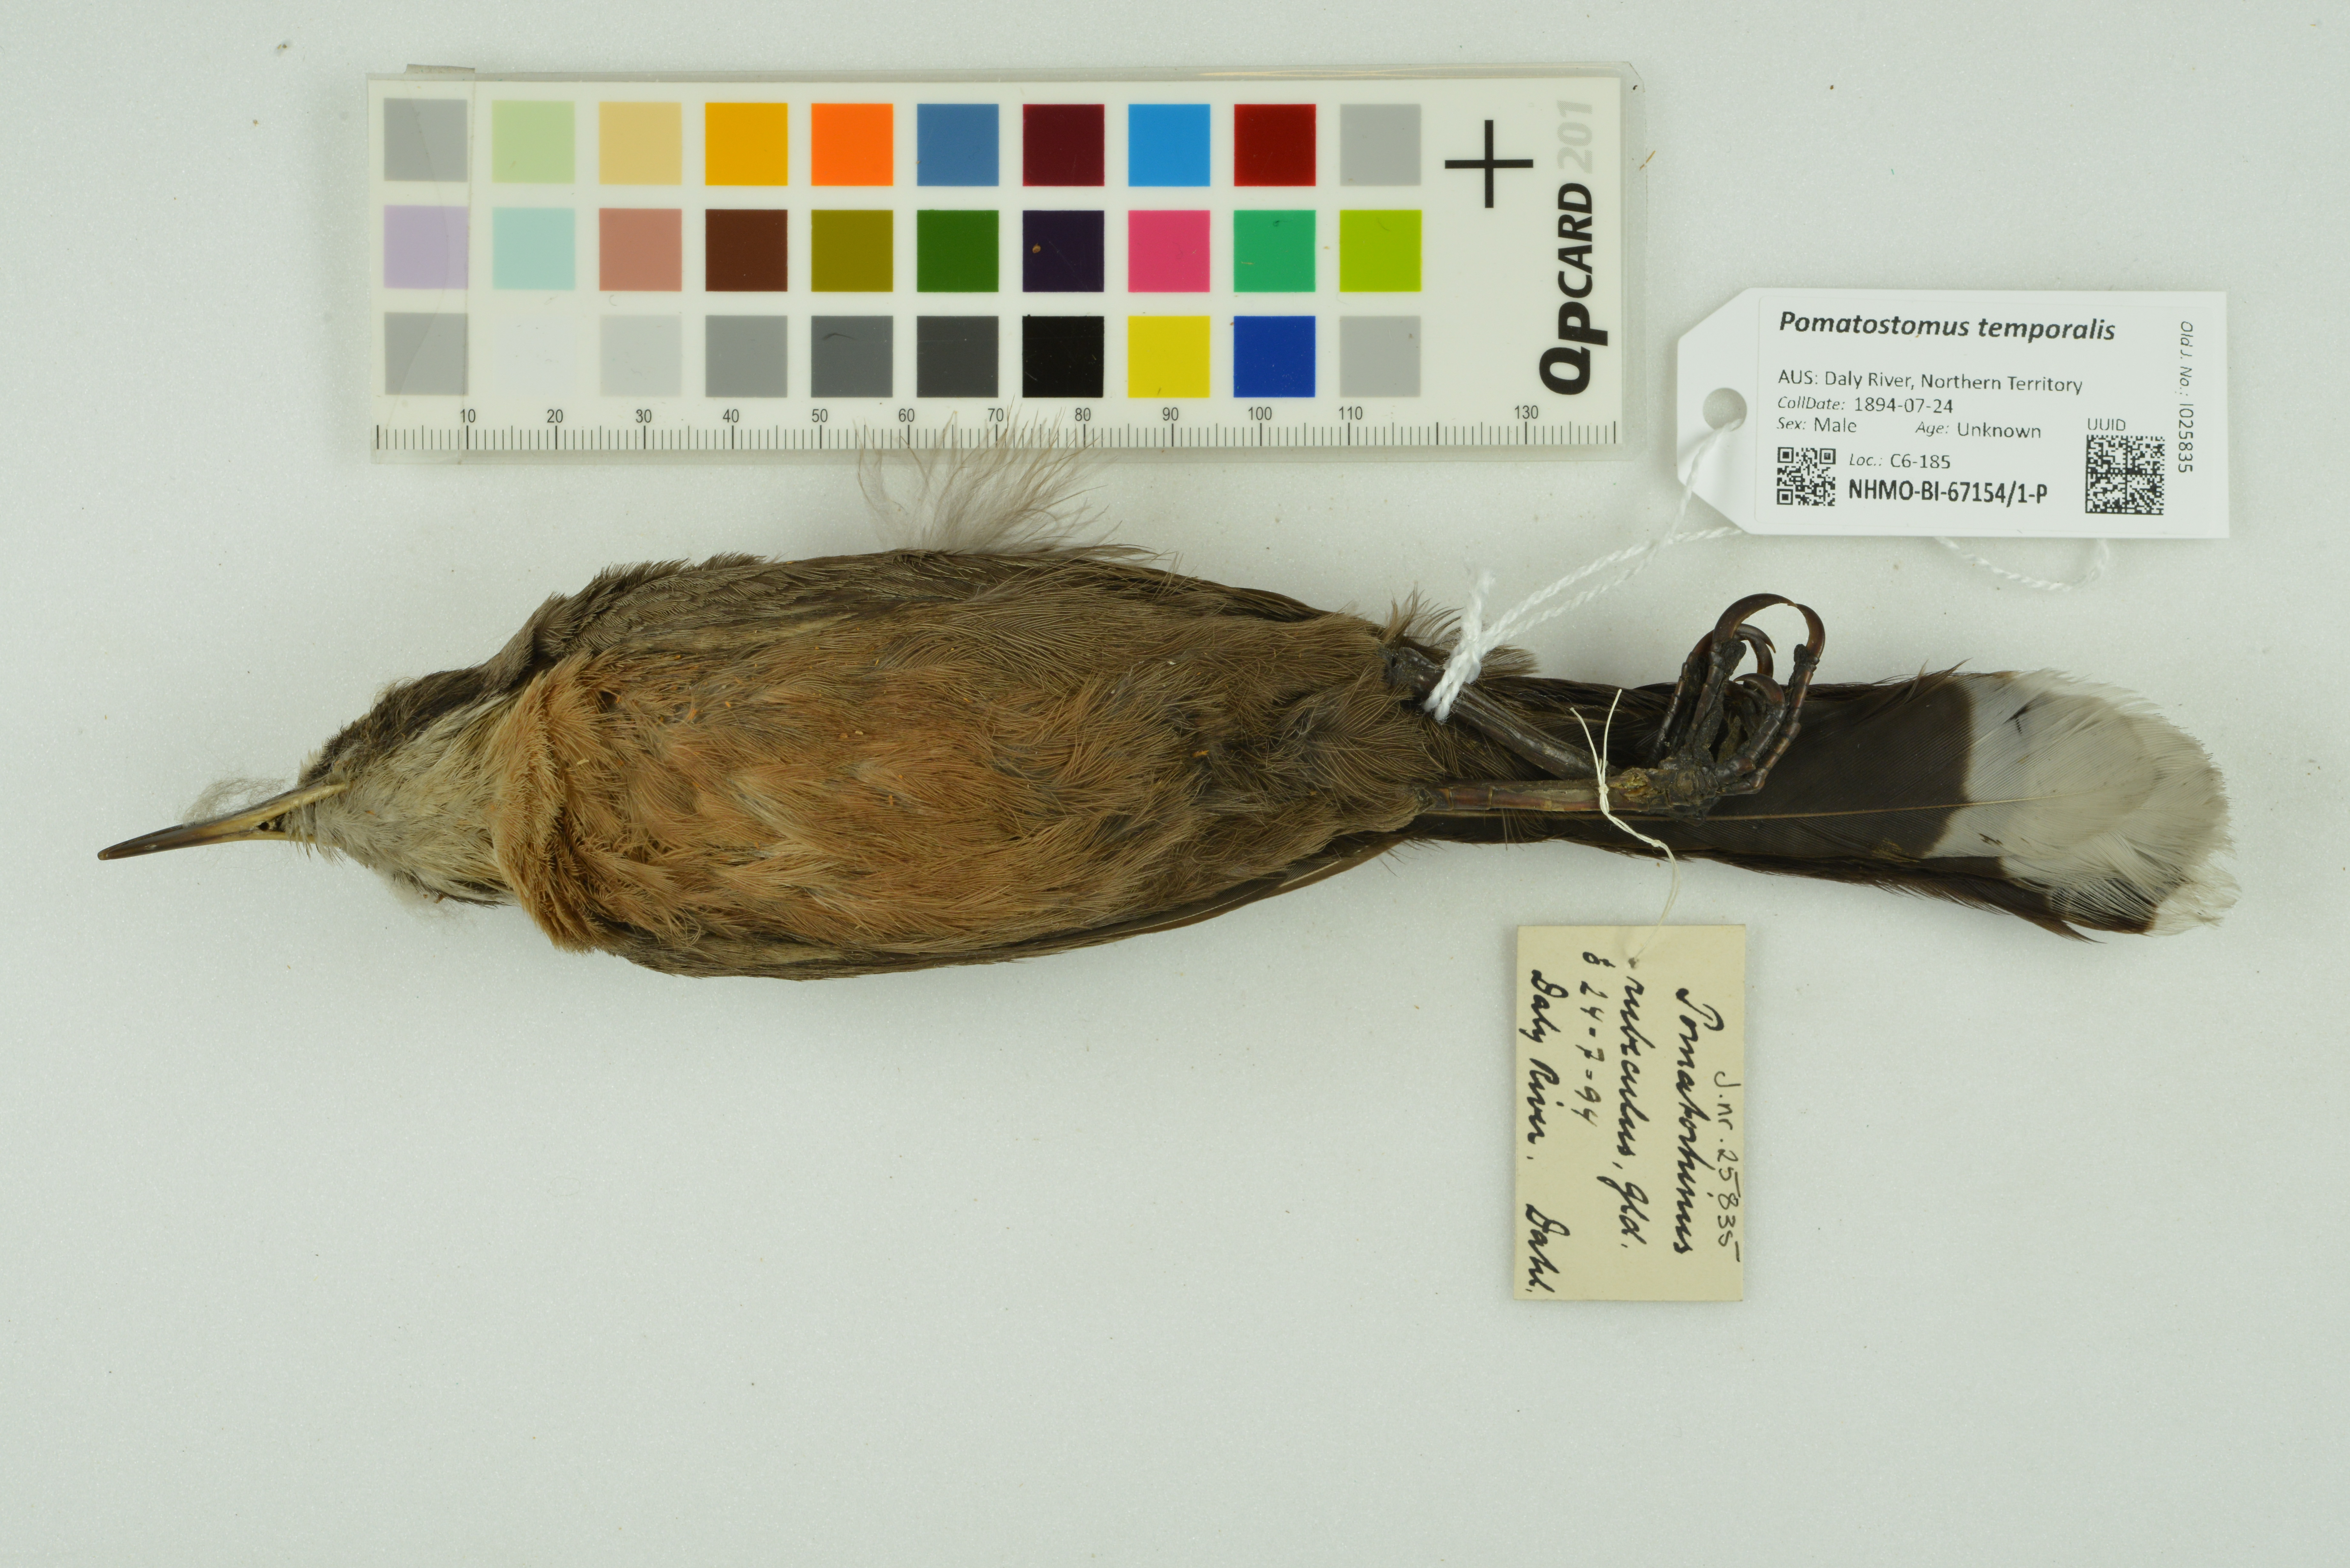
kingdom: Animalia
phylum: Chordata
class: Aves
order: Passeriformes
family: Pomatostomidae
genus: Pomatostomus
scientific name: Pomatostomus temporalis
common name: Grey-crowned babbler
